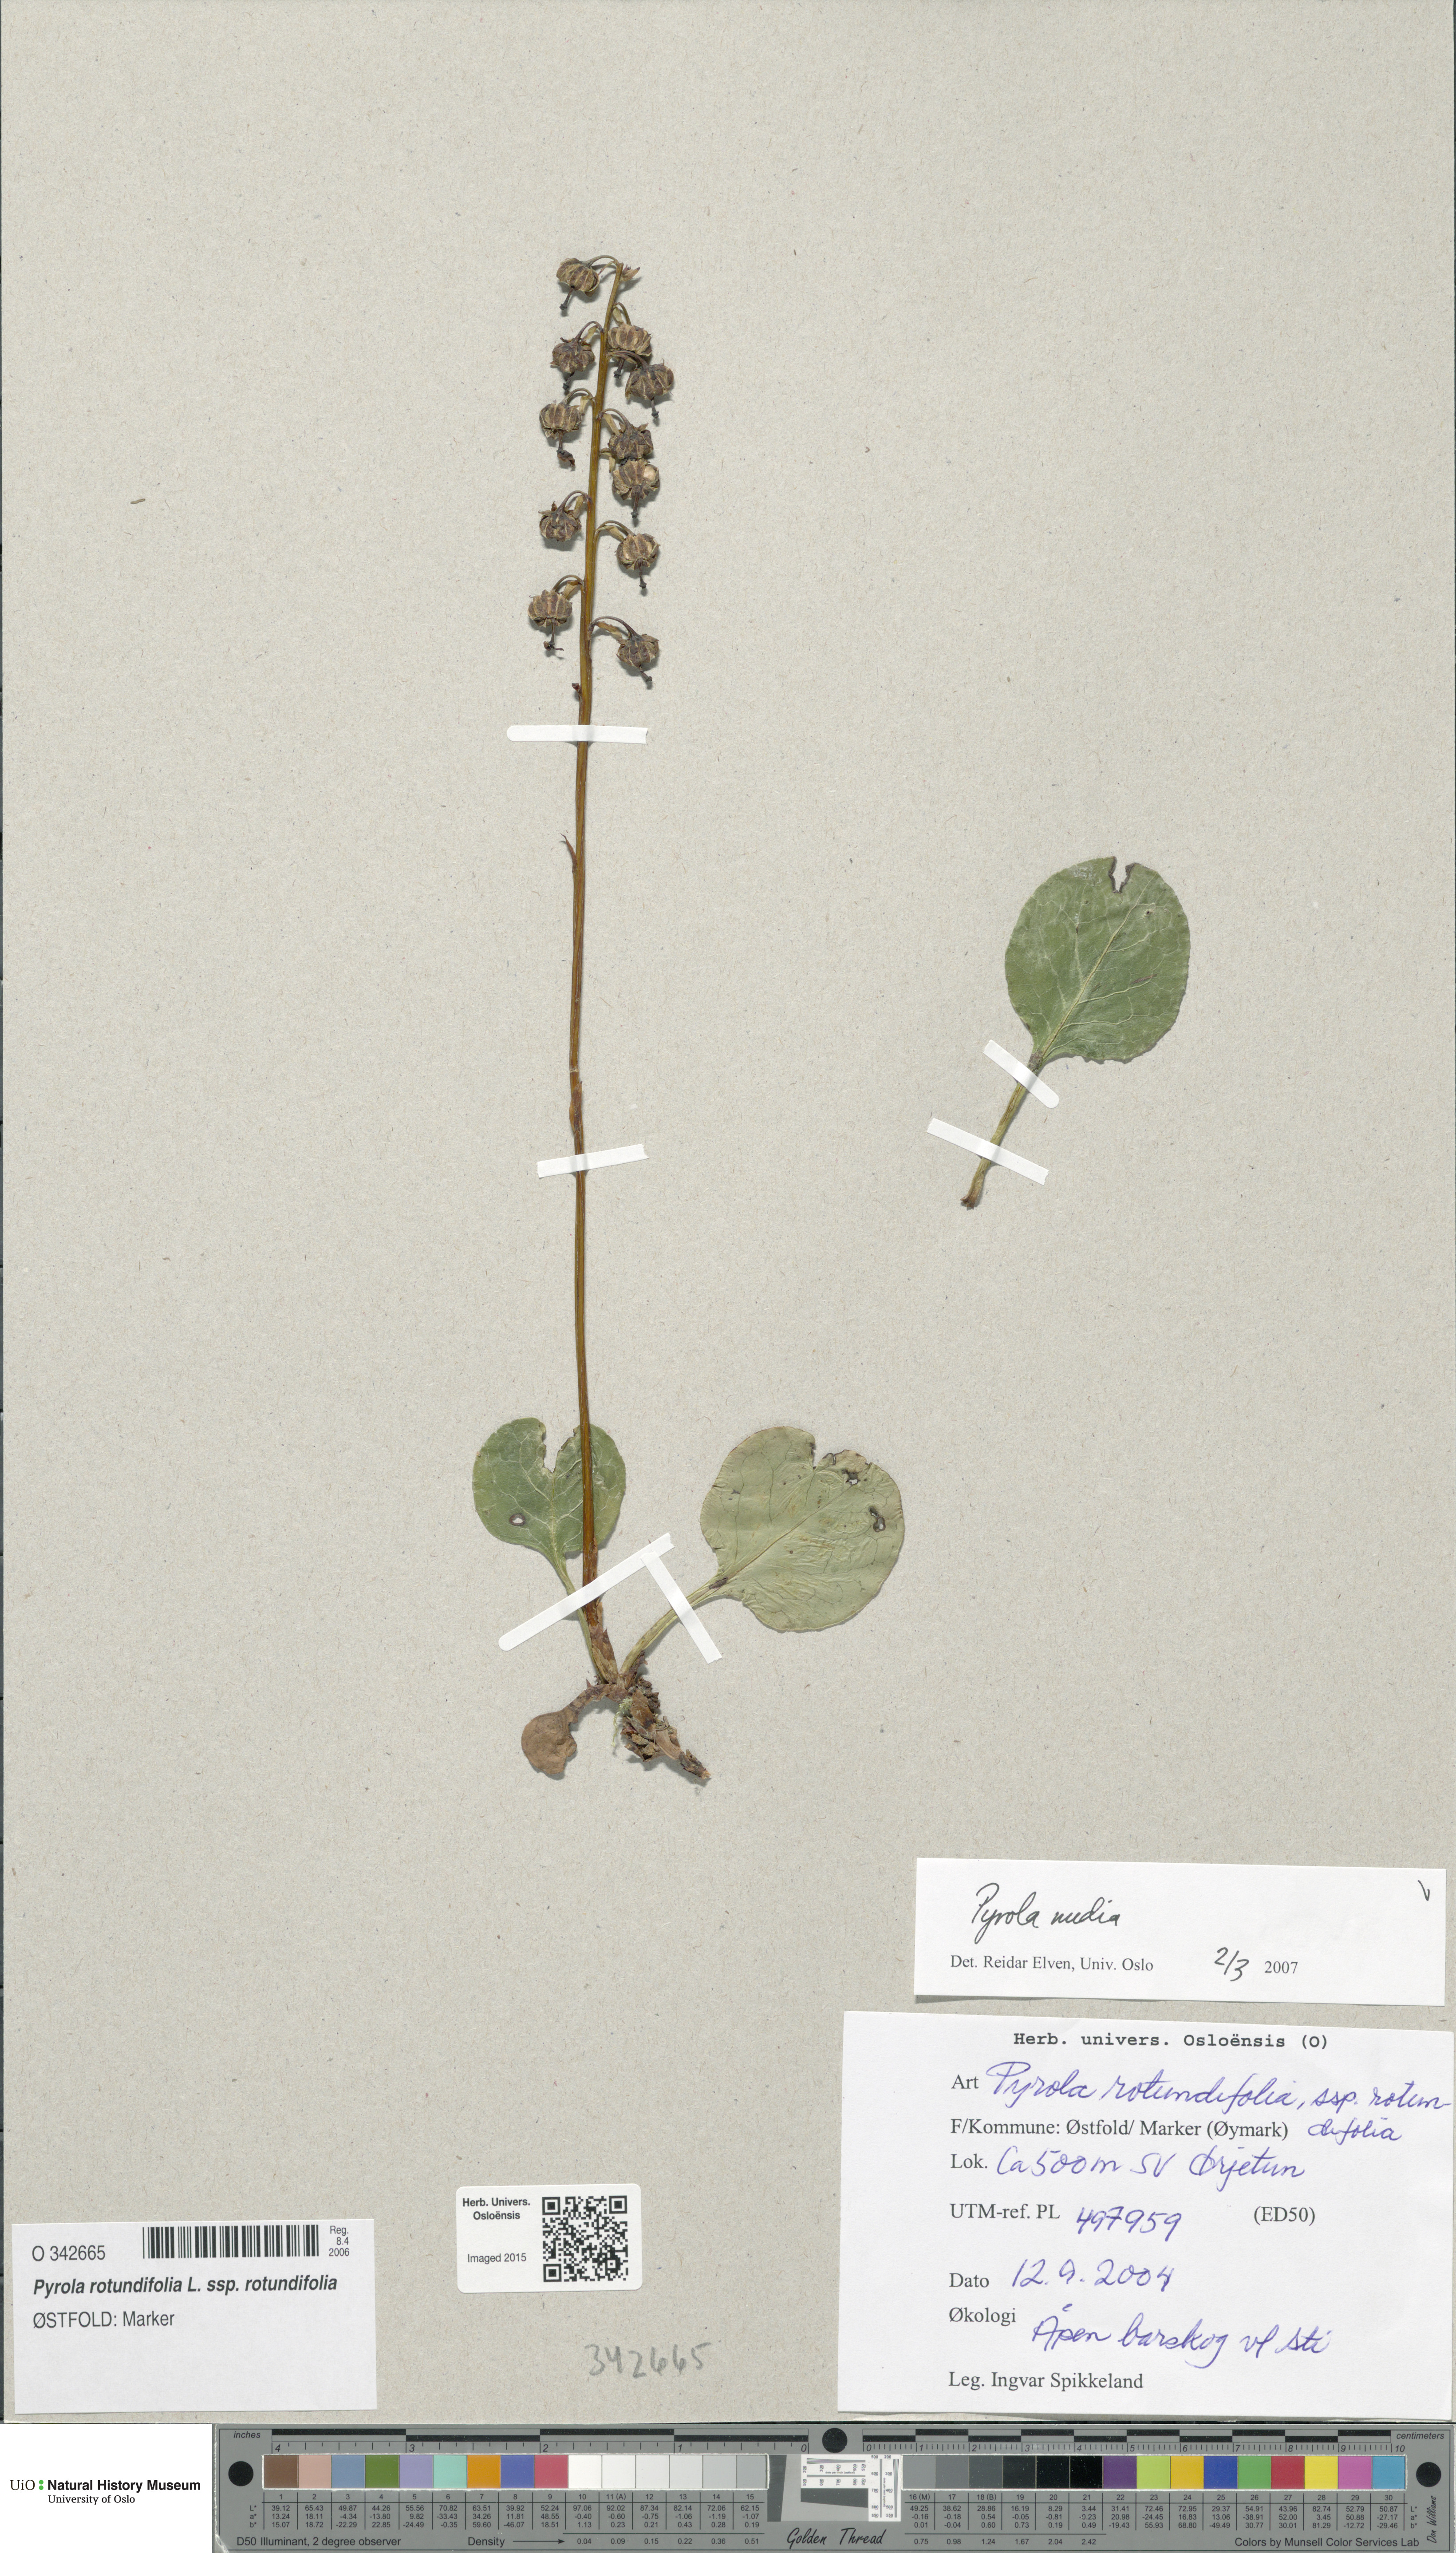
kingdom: Plantae
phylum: Tracheophyta
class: Magnoliopsida
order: Ericales
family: Ericaceae
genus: Pyrola
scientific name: Pyrola media
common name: Intermediate wintergreen
